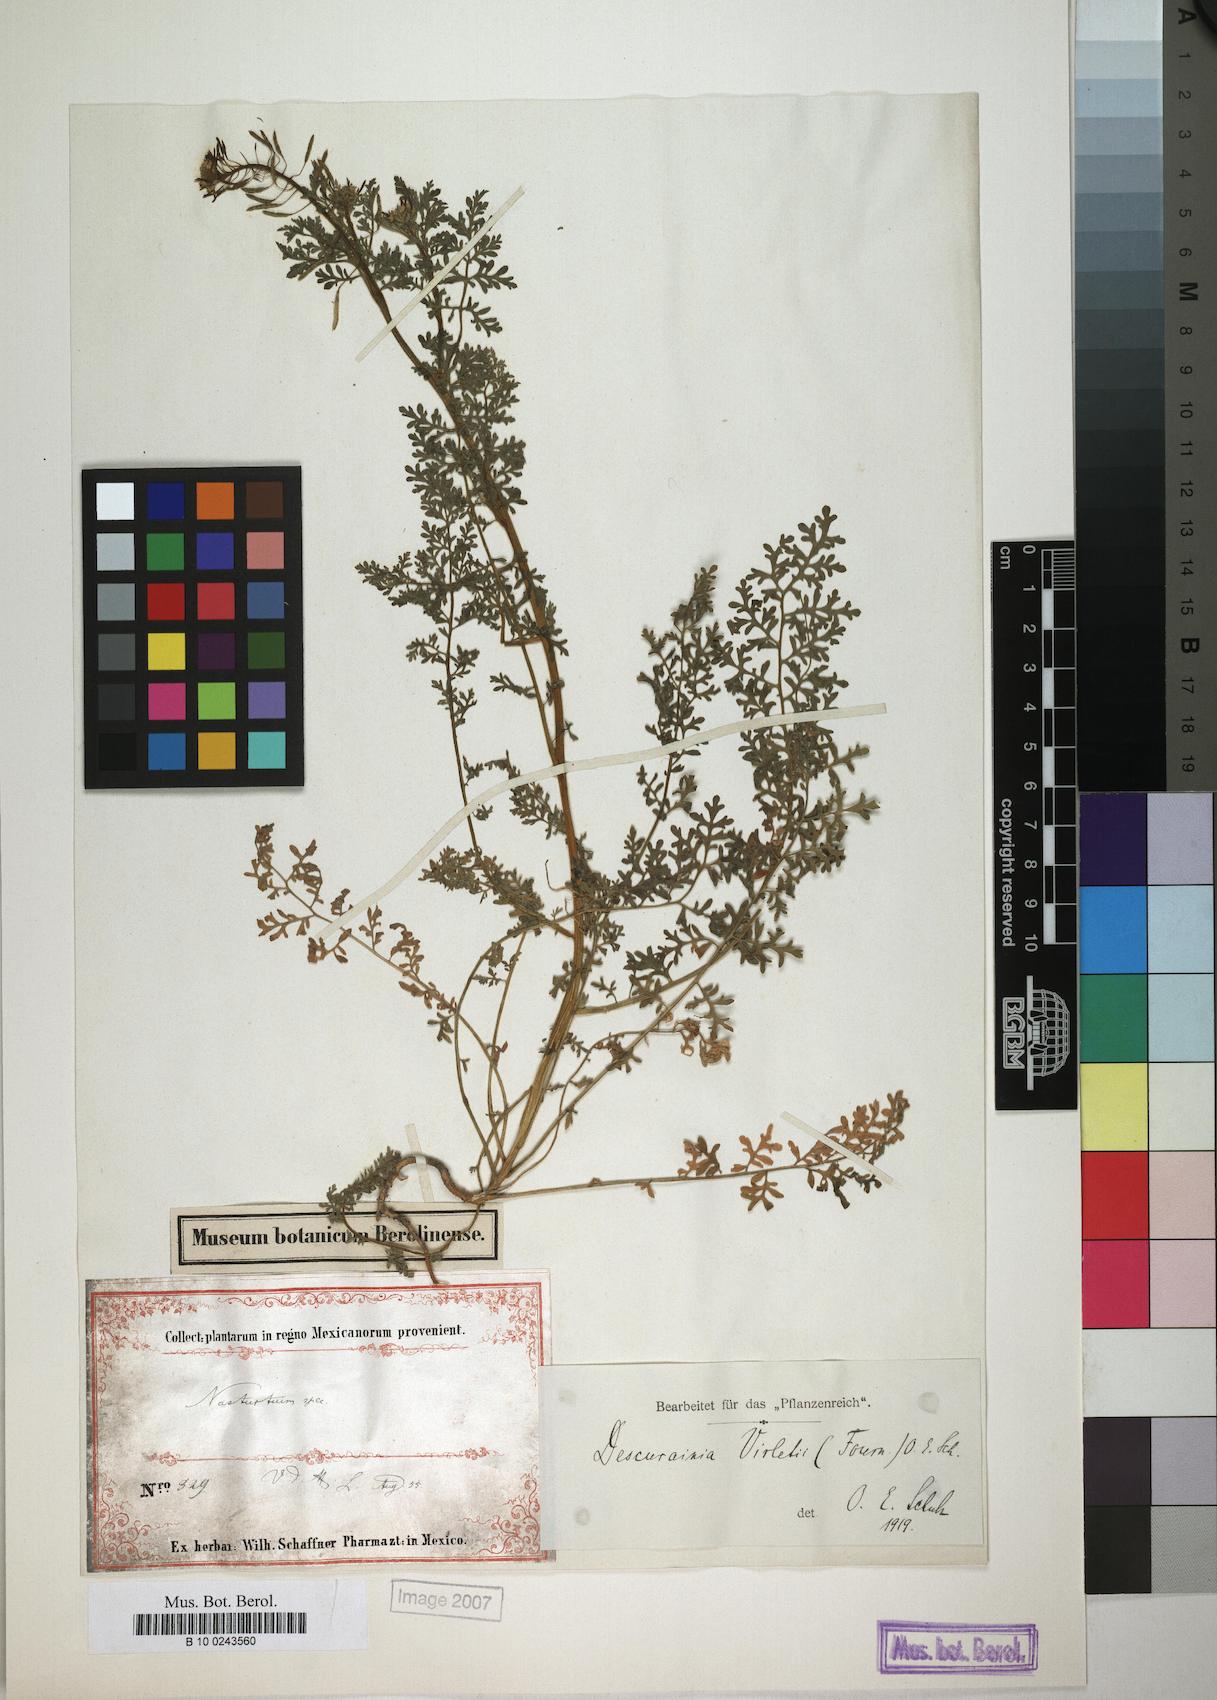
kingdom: Plantae
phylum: Tracheophyta
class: Magnoliopsida
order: Brassicales
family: Brassicaceae
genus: Descurainia
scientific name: Descurainia virletii
